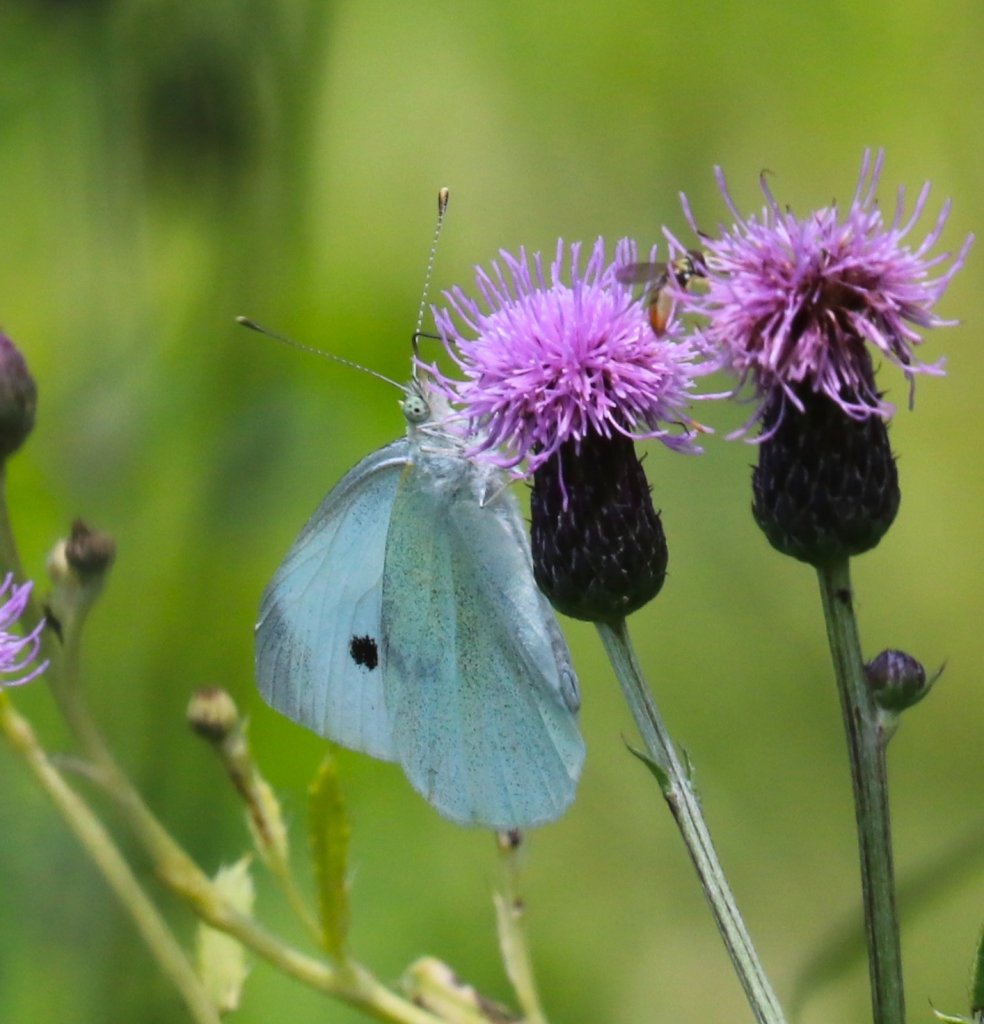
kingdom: Animalia
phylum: Arthropoda
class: Insecta
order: Lepidoptera
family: Pieridae
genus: Pieris
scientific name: Pieris rapae
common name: Cabbage White
